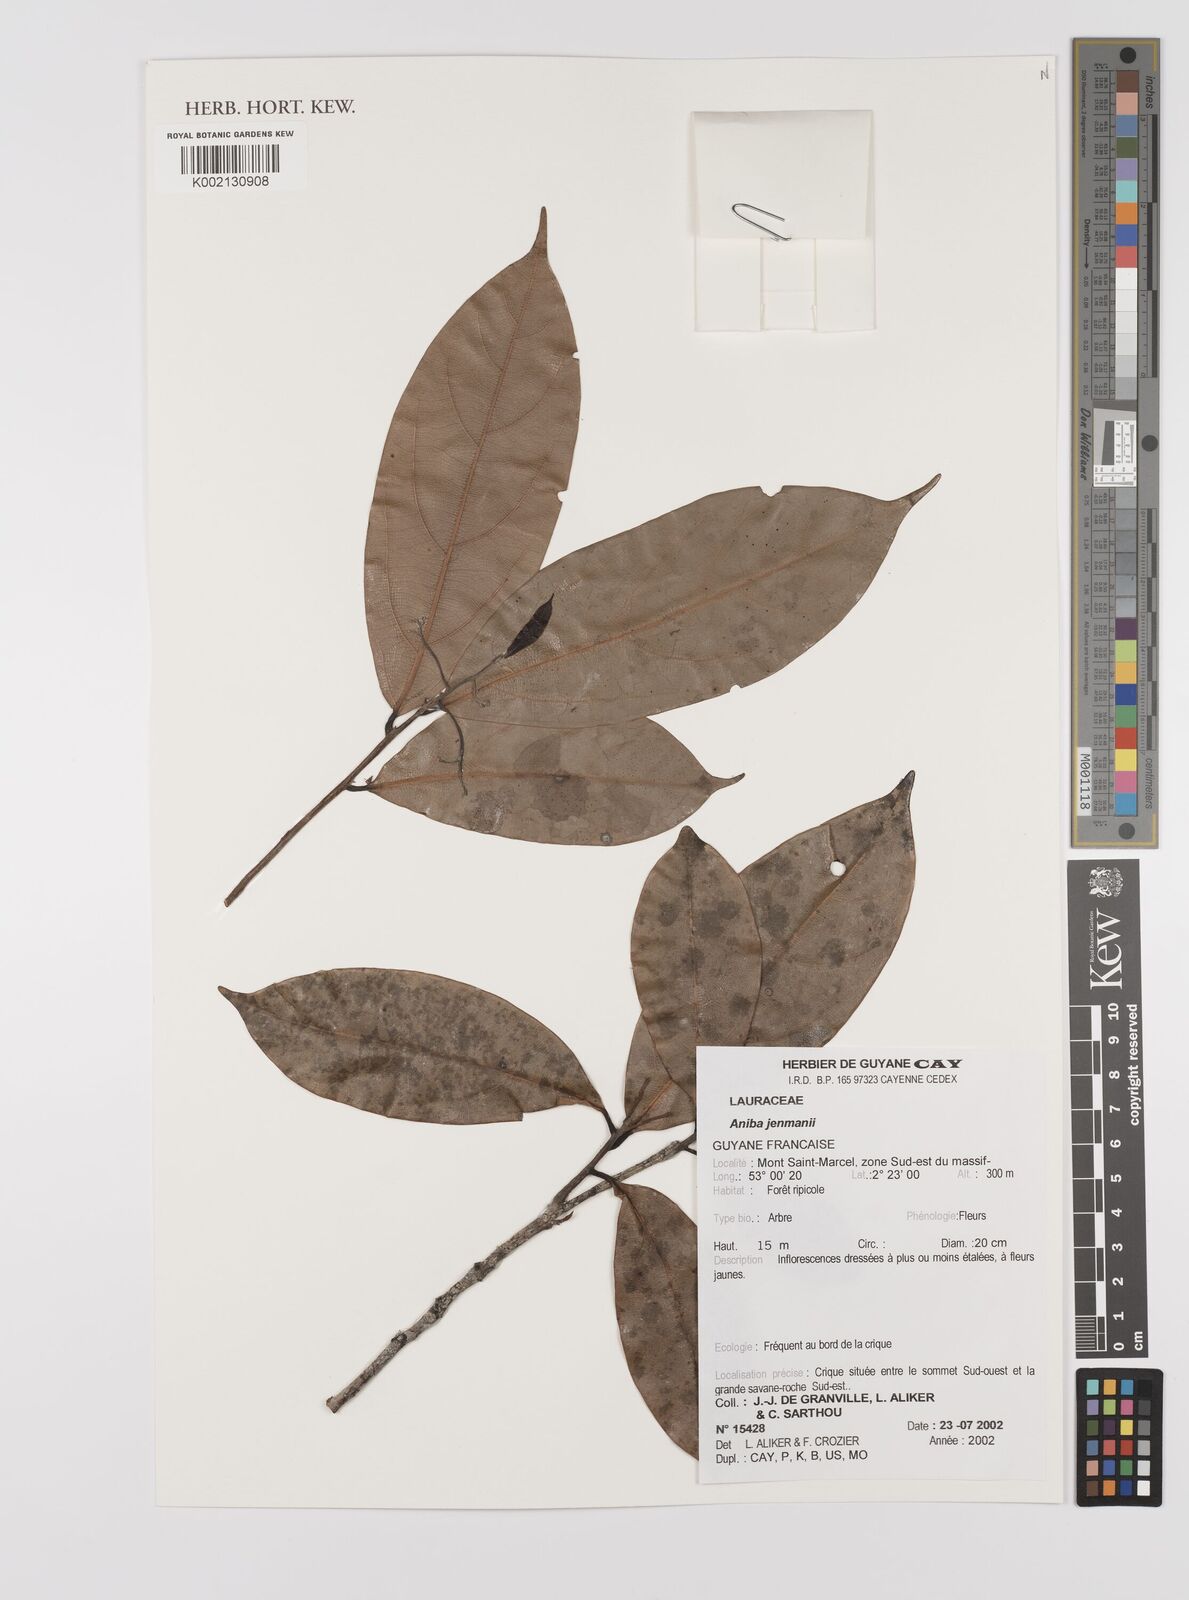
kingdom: Plantae
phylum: Tracheophyta
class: Magnoliopsida
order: Laurales
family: Lauraceae
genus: Aniba
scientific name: Aniba jenmanii
